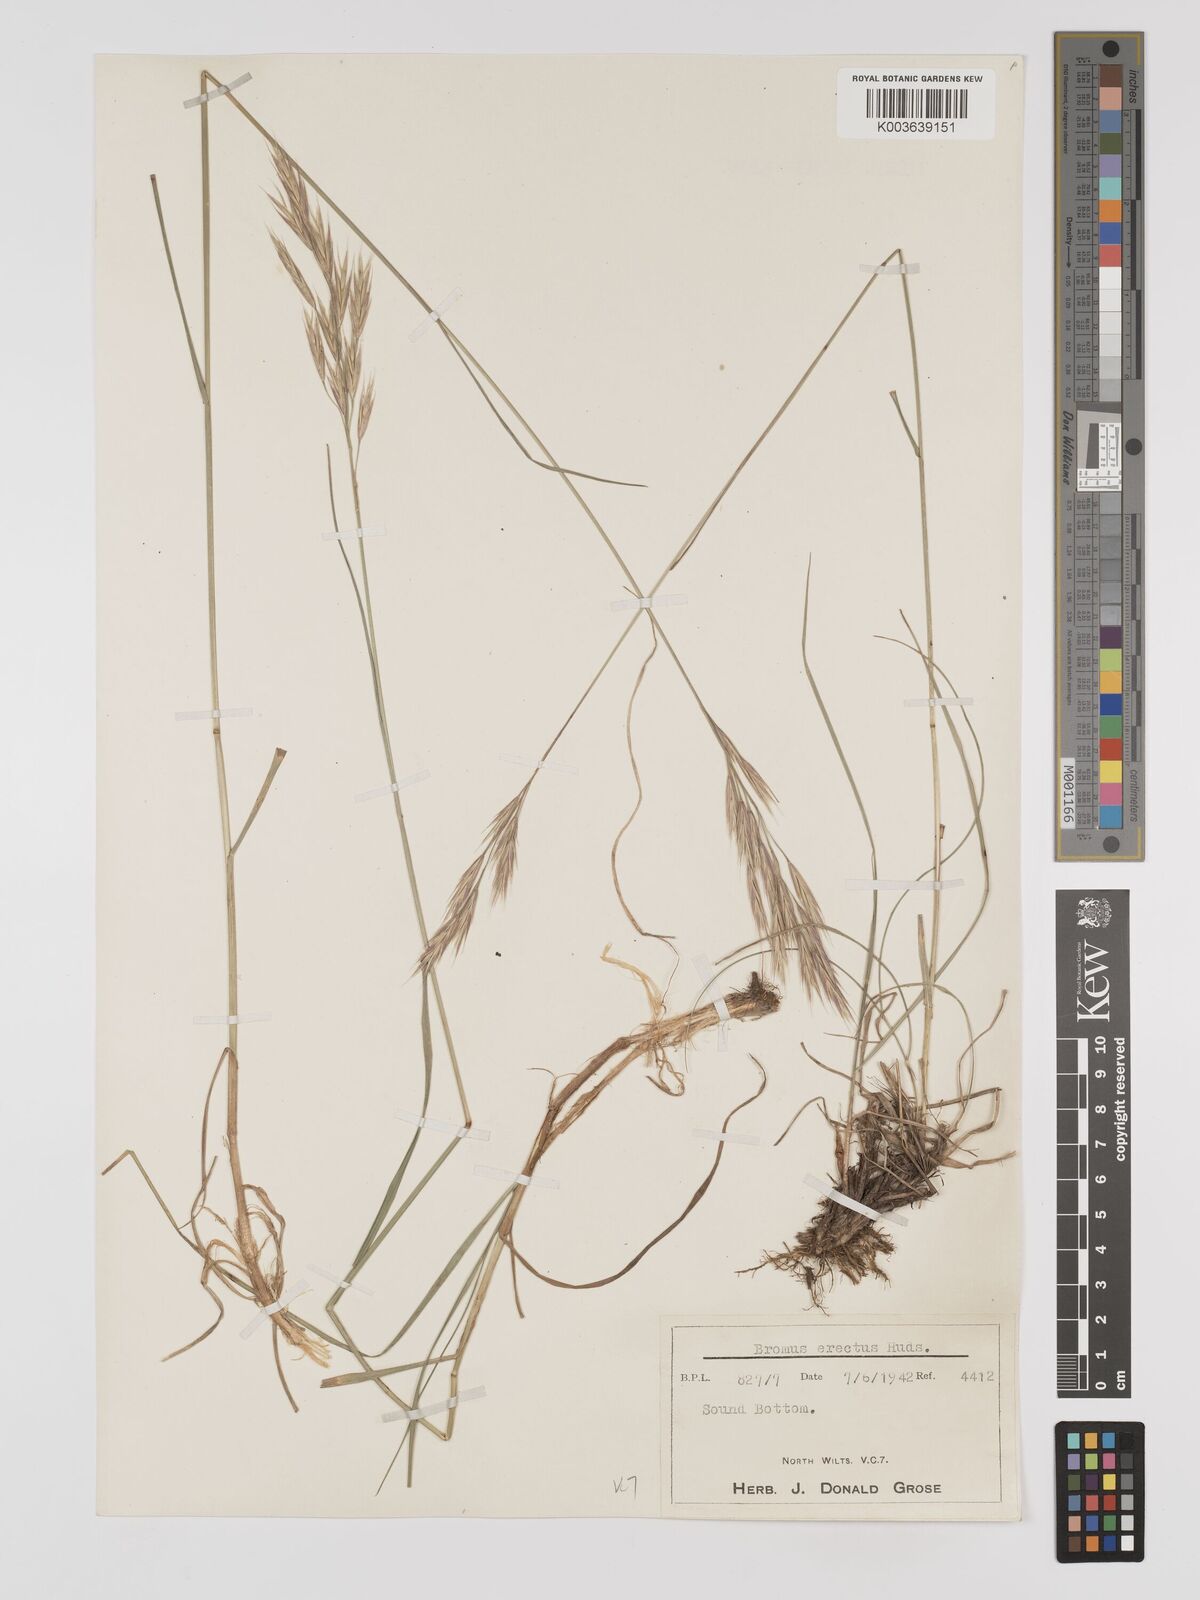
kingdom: Plantae
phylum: Tracheophyta
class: Liliopsida
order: Poales
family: Poaceae
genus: Bromus
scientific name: Bromus erectus
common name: Erect brome
